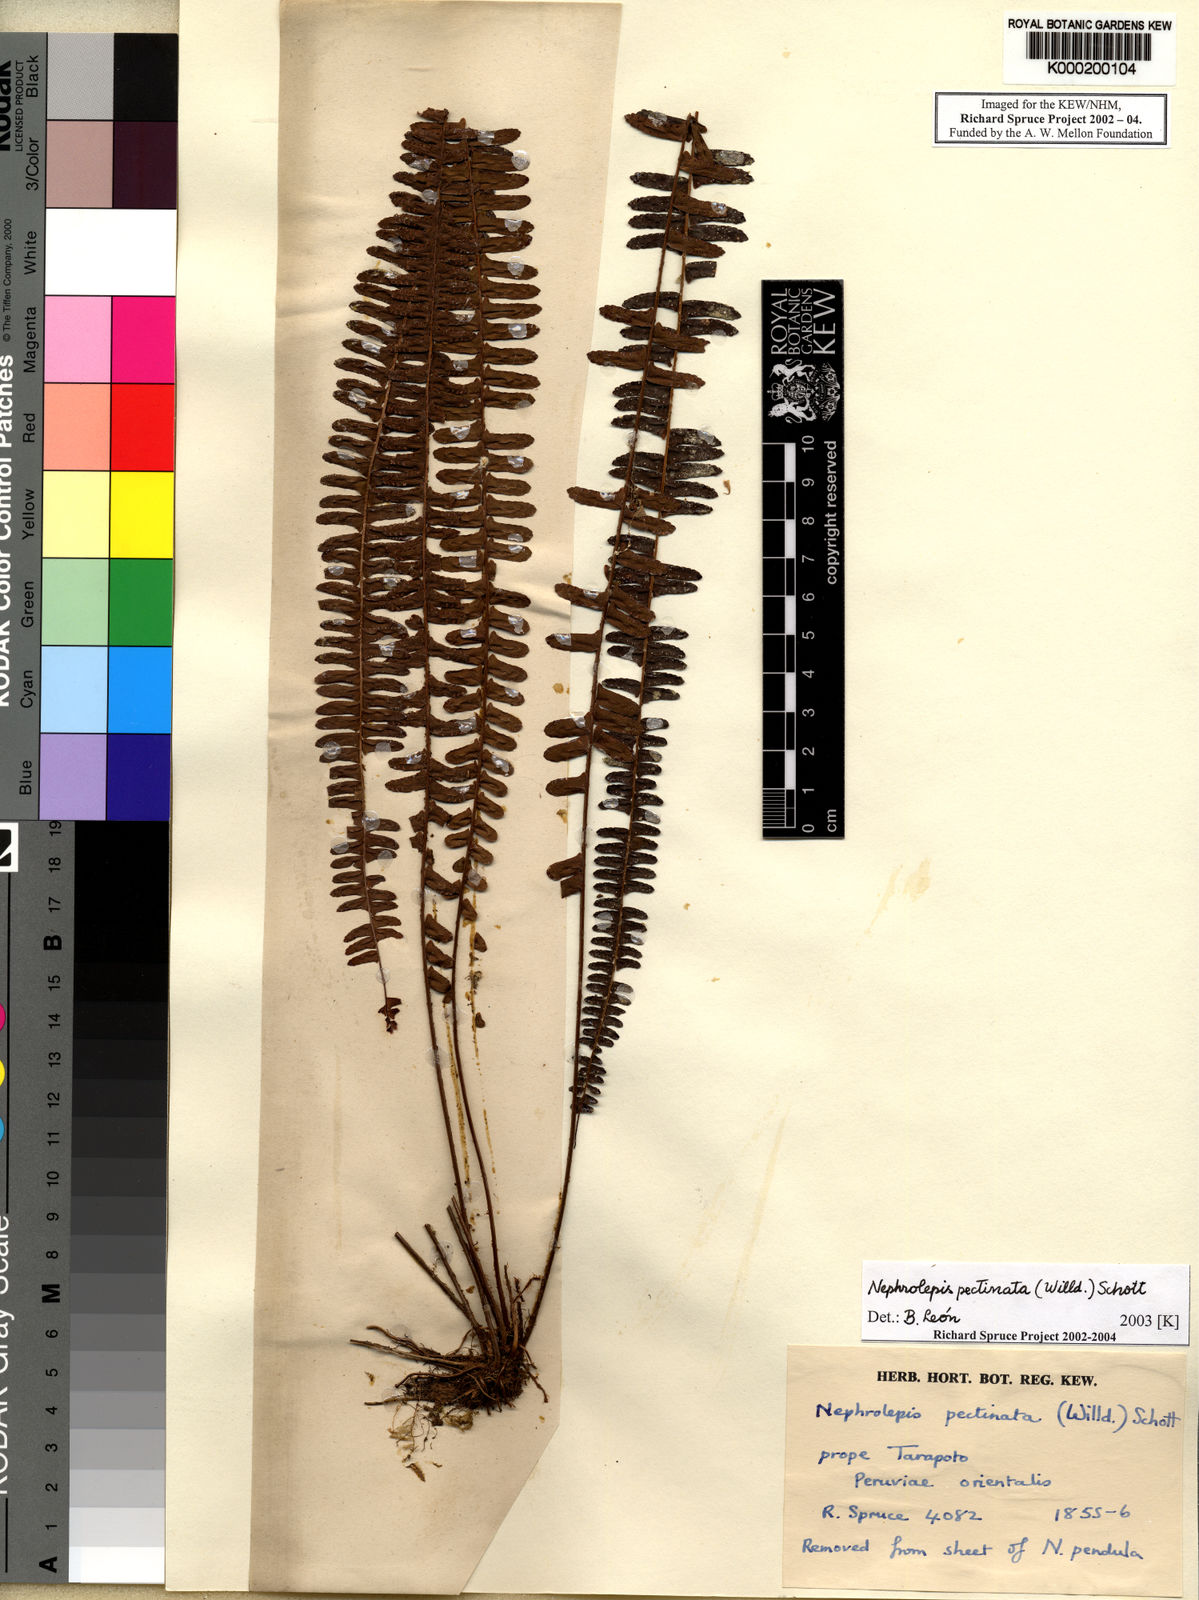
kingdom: Plantae
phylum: Tracheophyta
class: Polypodiopsida
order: Polypodiales
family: Nephrolepidaceae
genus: Nephrolepis
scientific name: Nephrolepis pectinata
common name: Basket fern
